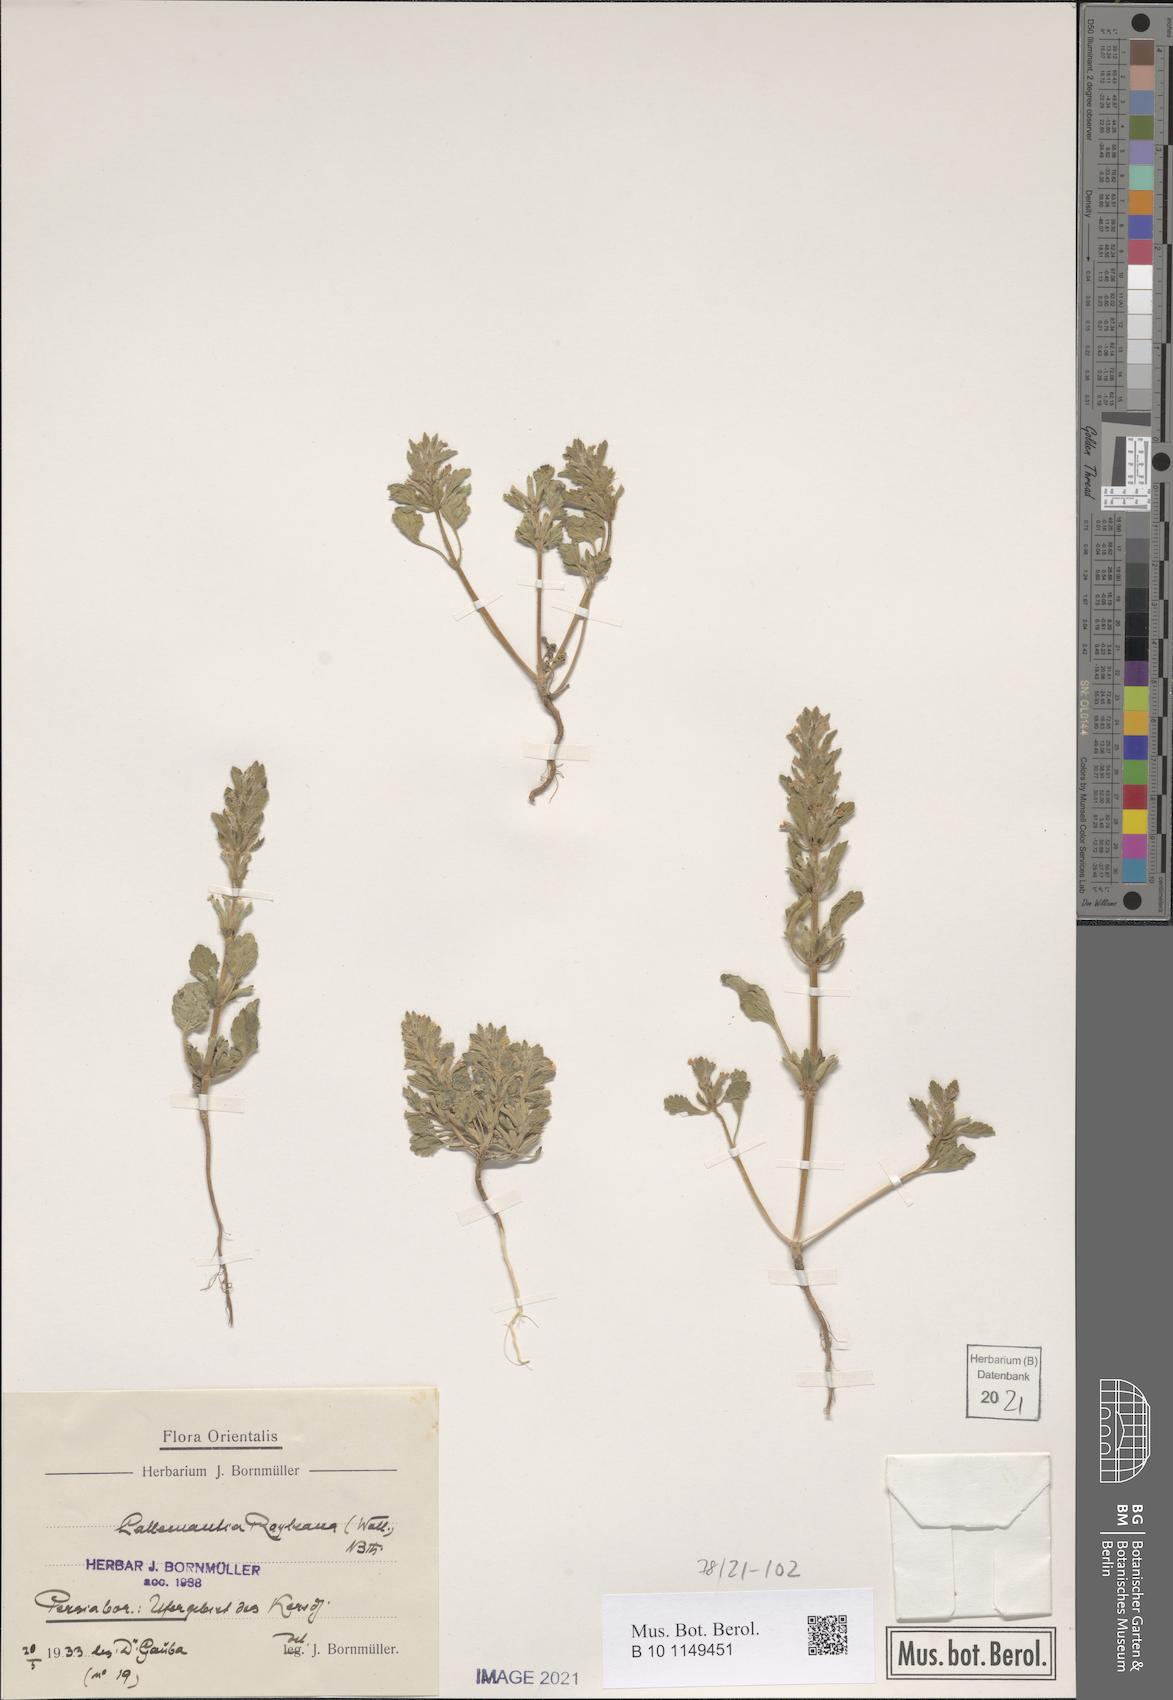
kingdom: Plantae
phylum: Tracheophyta
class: Magnoliopsida
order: Lamiales
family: Lamiaceae
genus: Lallemantia
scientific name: Lallemantia royleana
